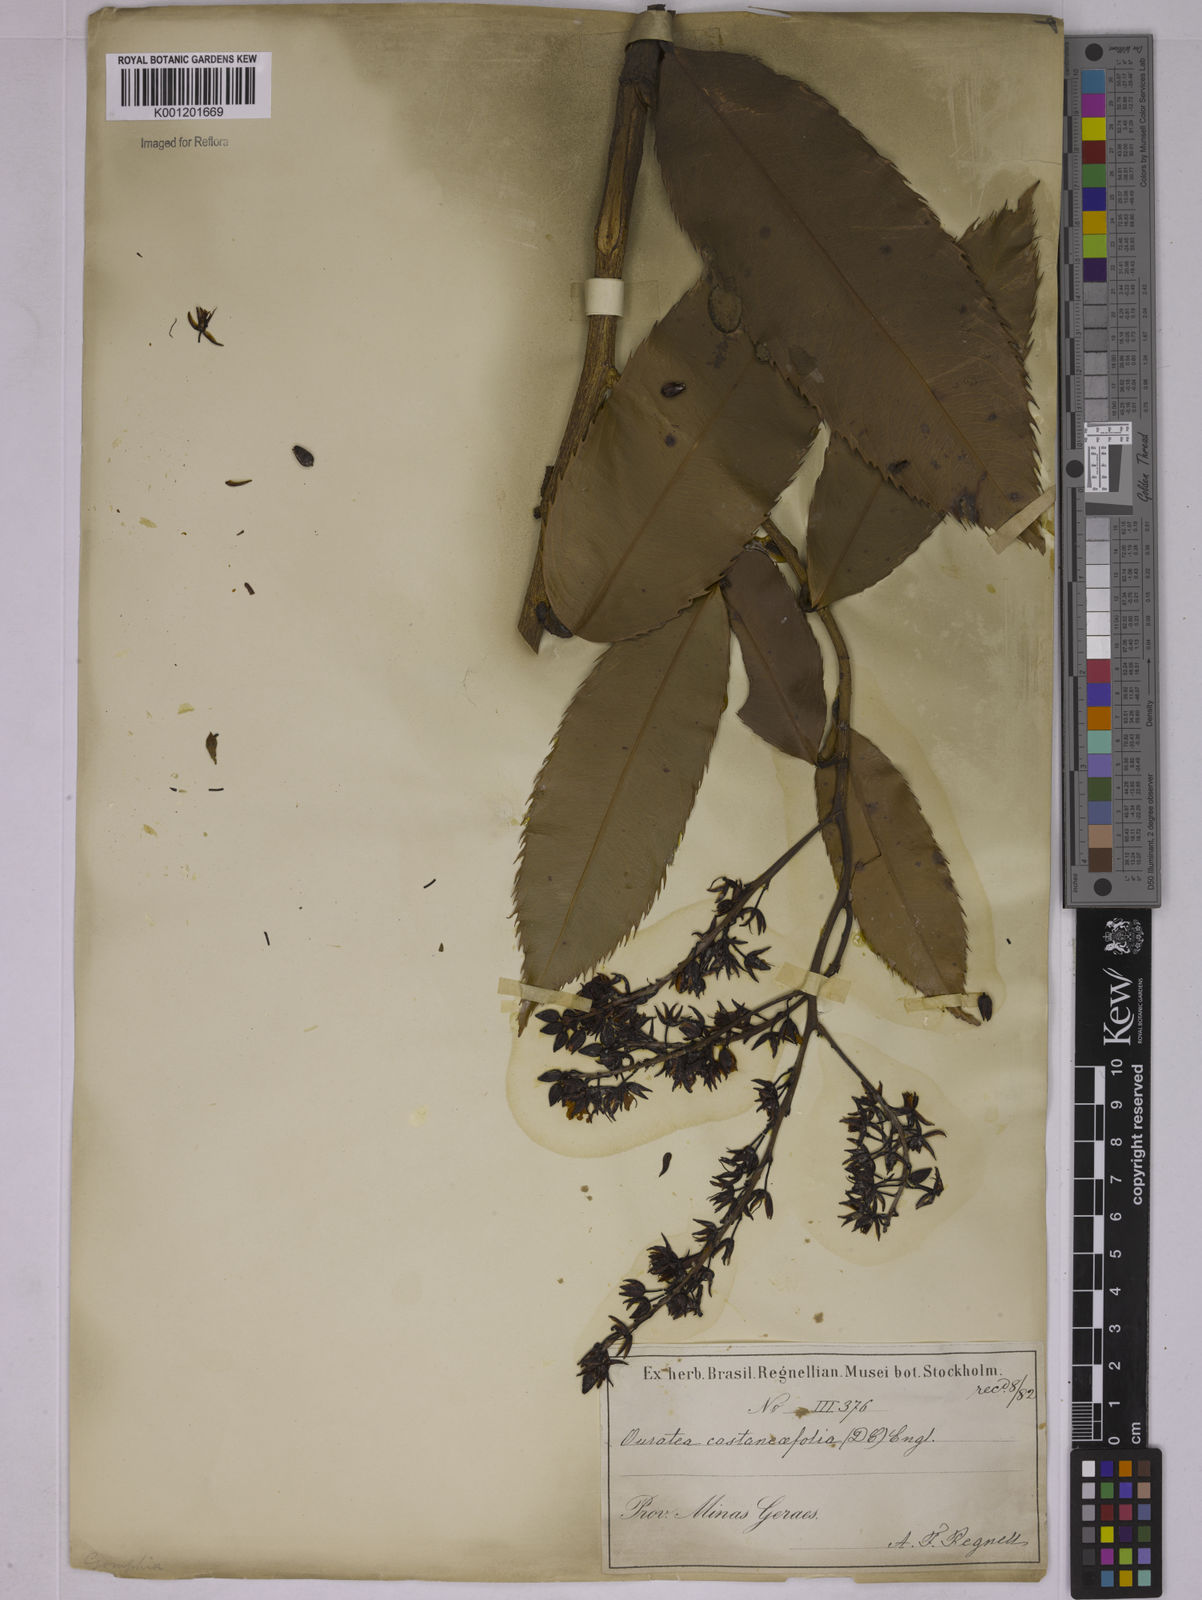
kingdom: Plantae
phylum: Tracheophyta
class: Magnoliopsida
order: Malpighiales
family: Ochnaceae
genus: Ouratea
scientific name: Ouratea castaneifolia
